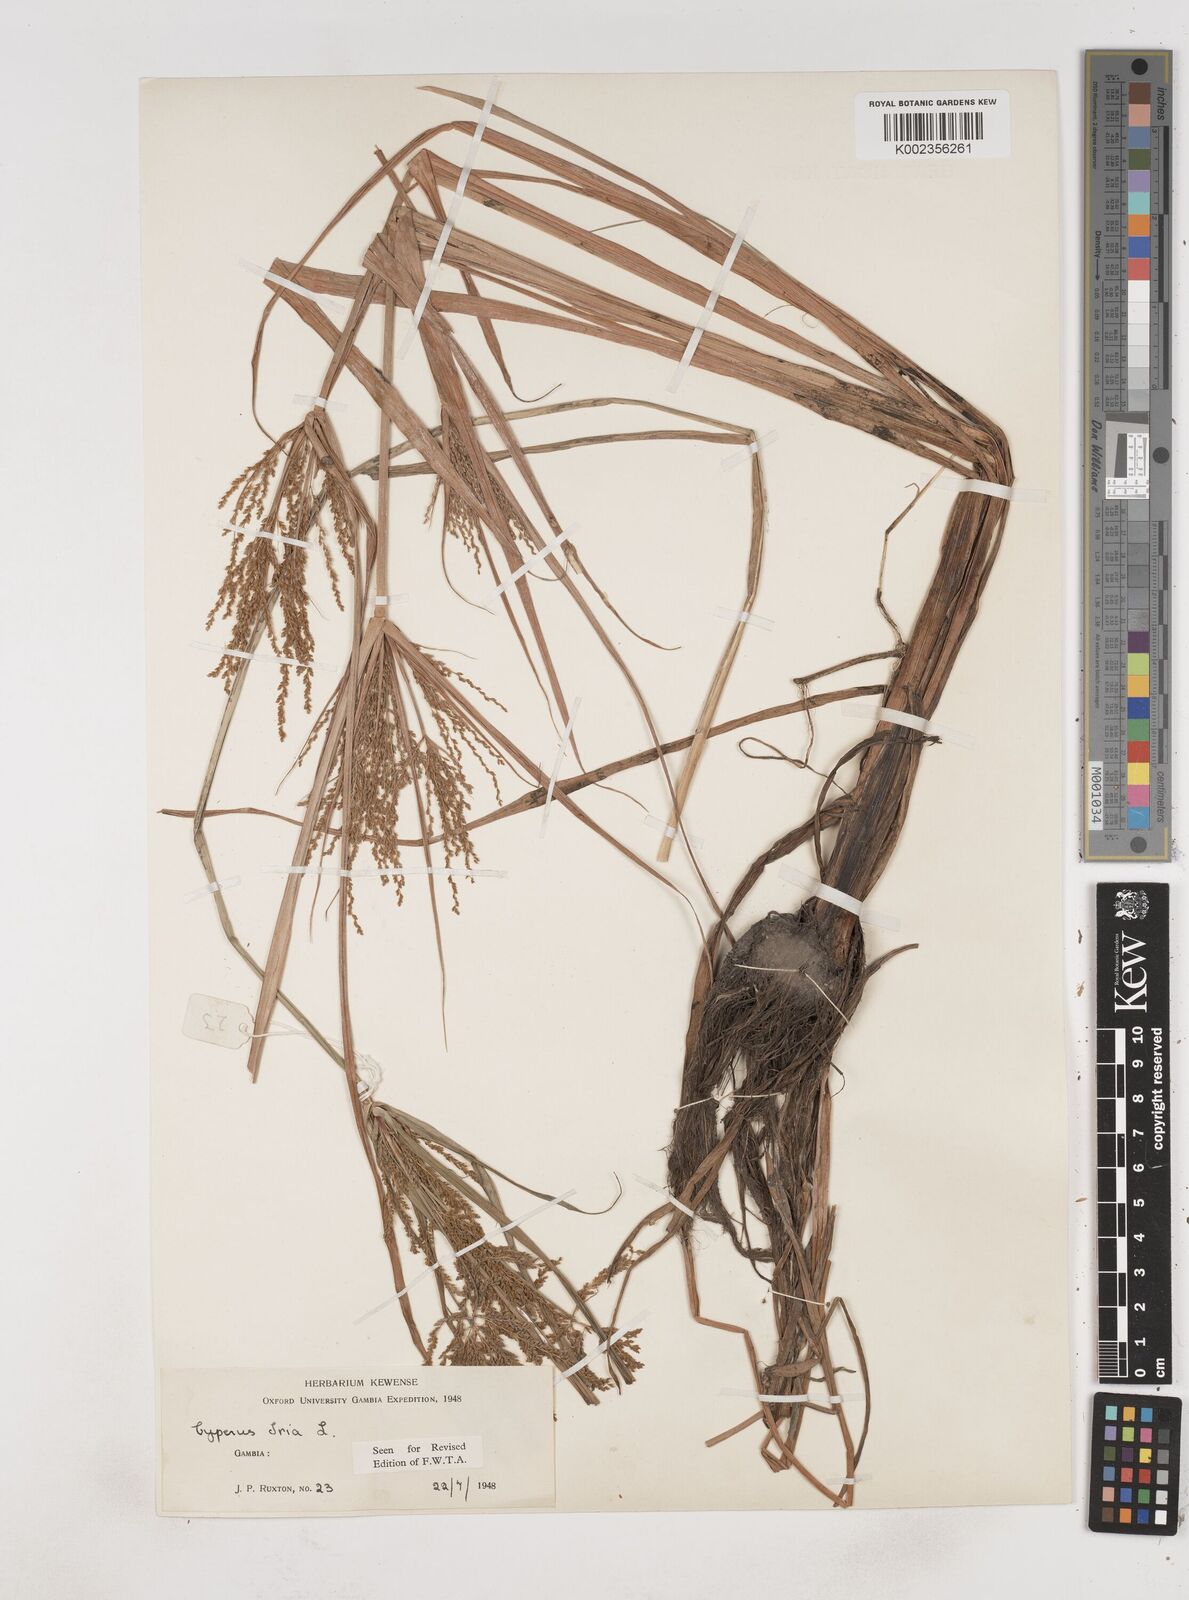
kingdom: Plantae
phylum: Tracheophyta
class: Liliopsida
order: Poales
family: Cyperaceae
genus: Cyperus
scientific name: Cyperus iria
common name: Ricefield flatsedge
